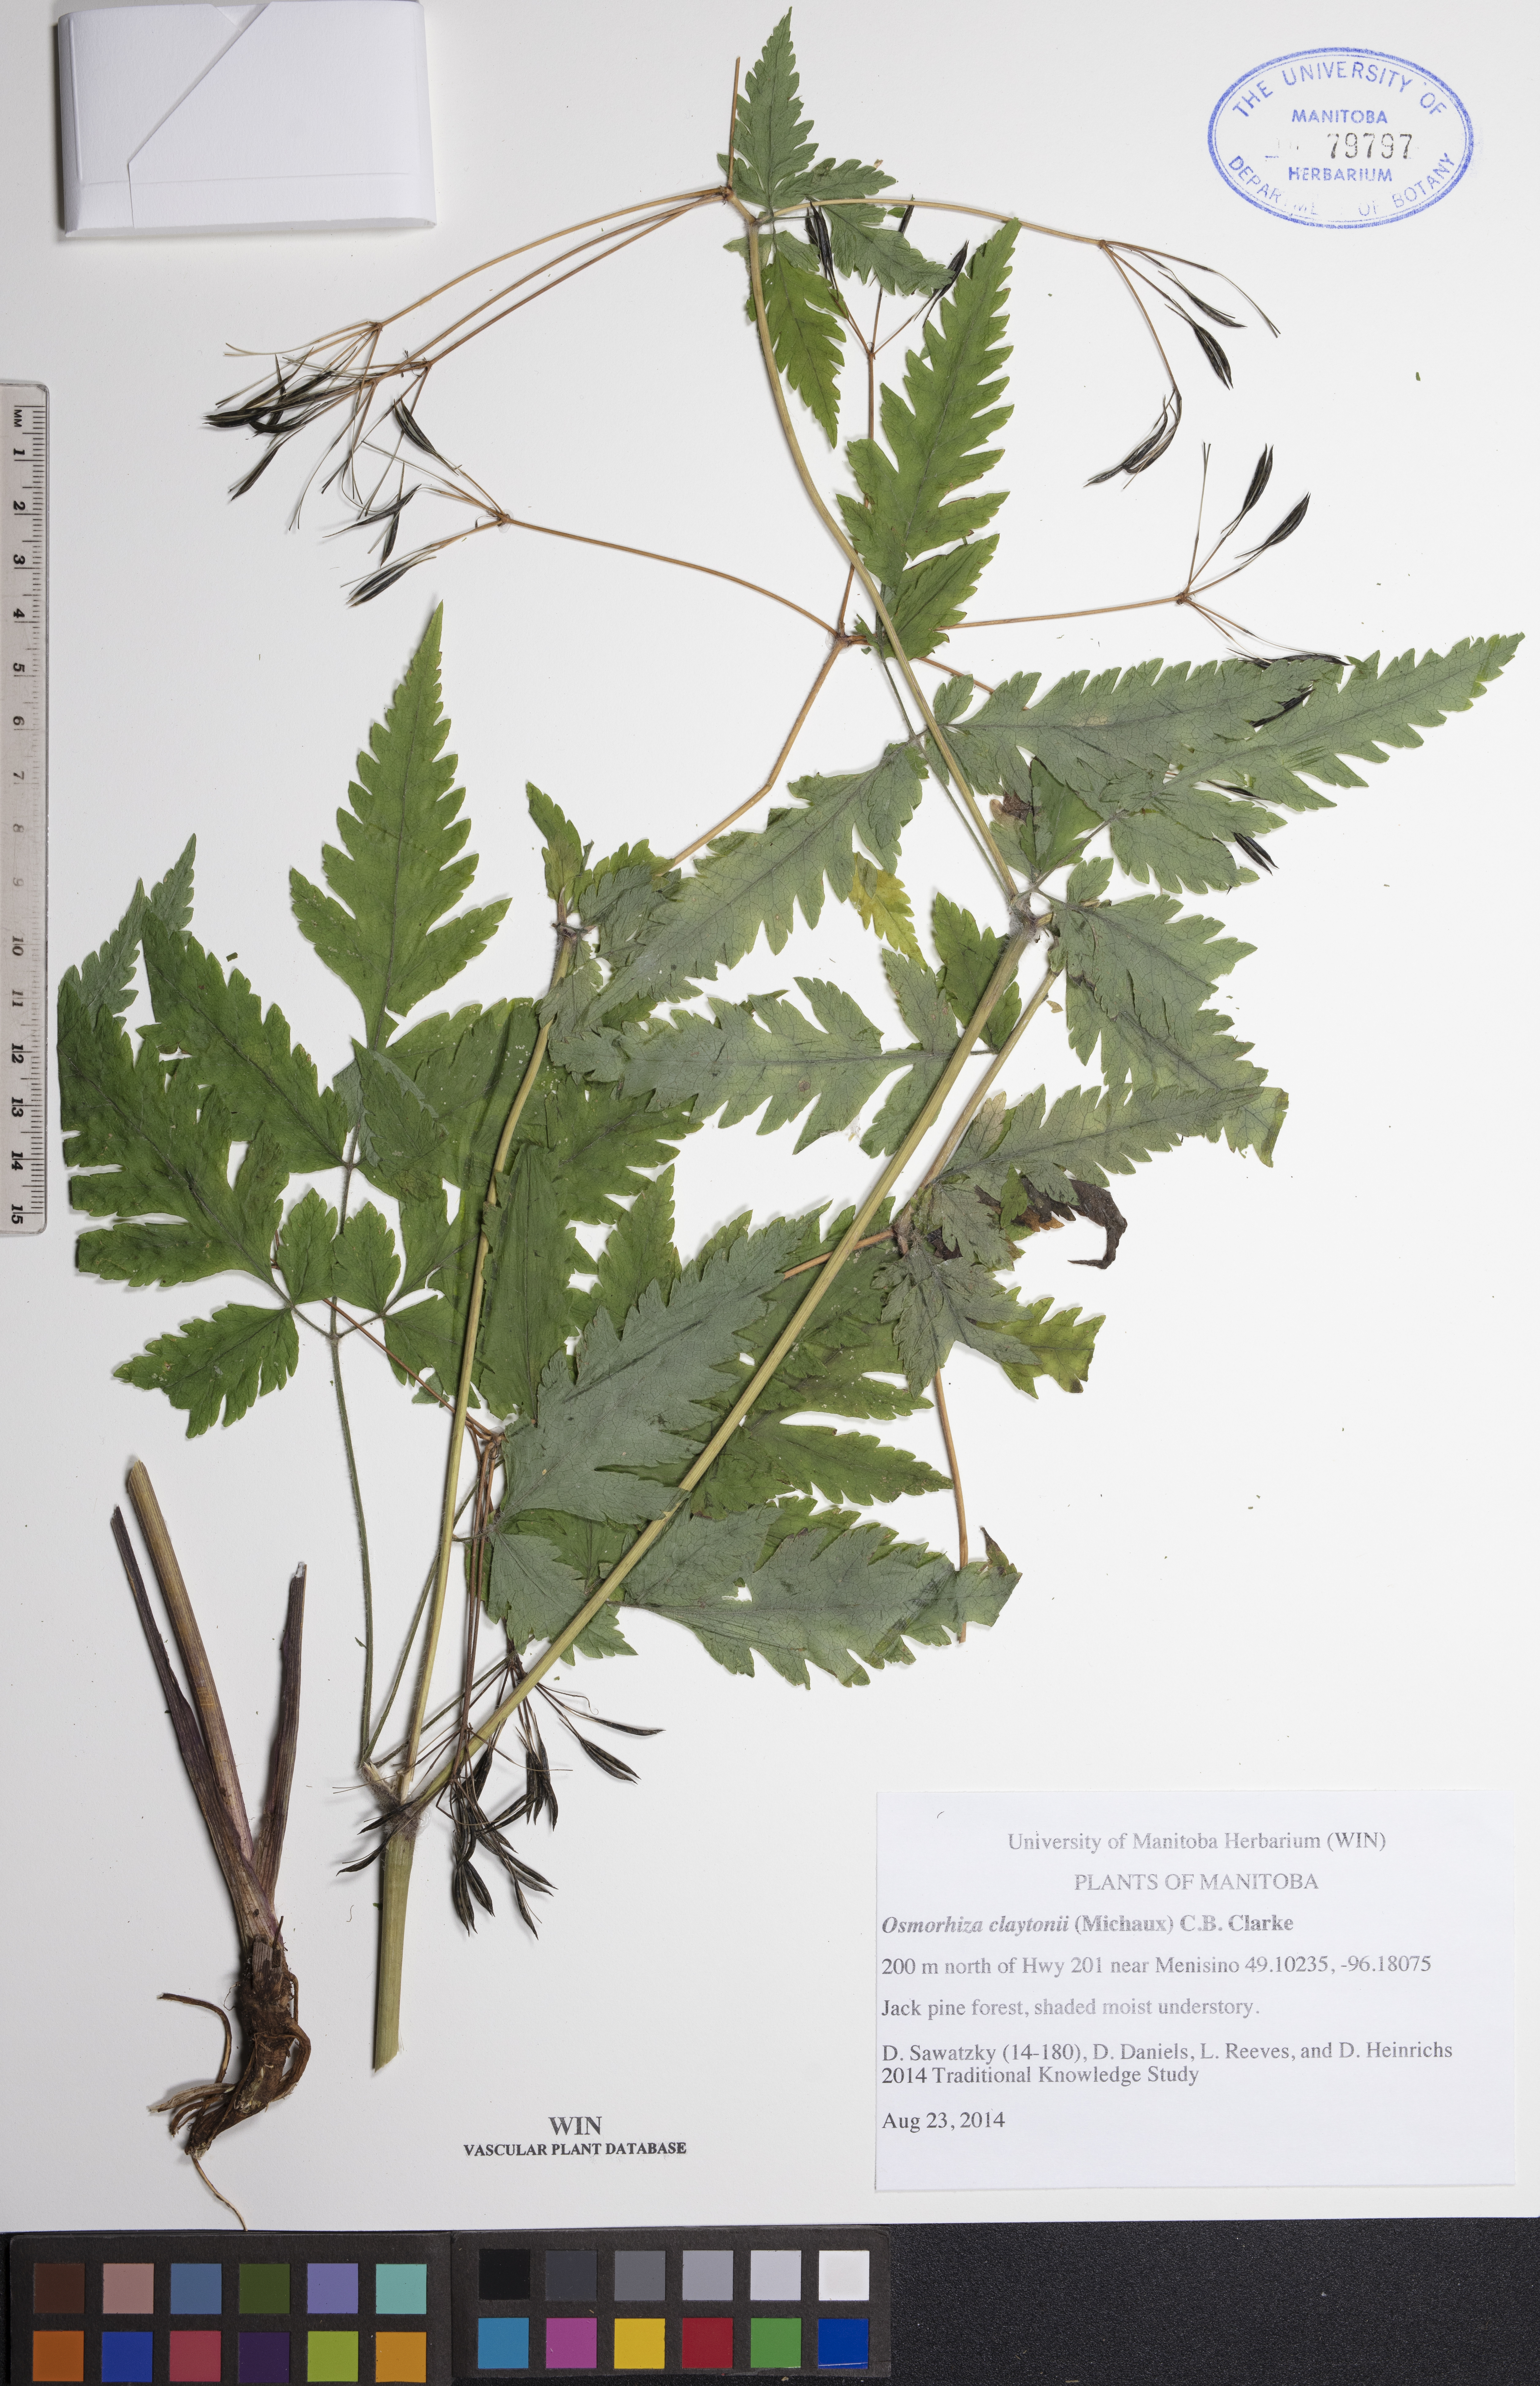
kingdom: Plantae
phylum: Tracheophyta
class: Magnoliopsida
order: Apiales
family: Apiaceae
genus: Osmorhiza
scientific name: Osmorhiza claytonii
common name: Hairy sweet cicely
